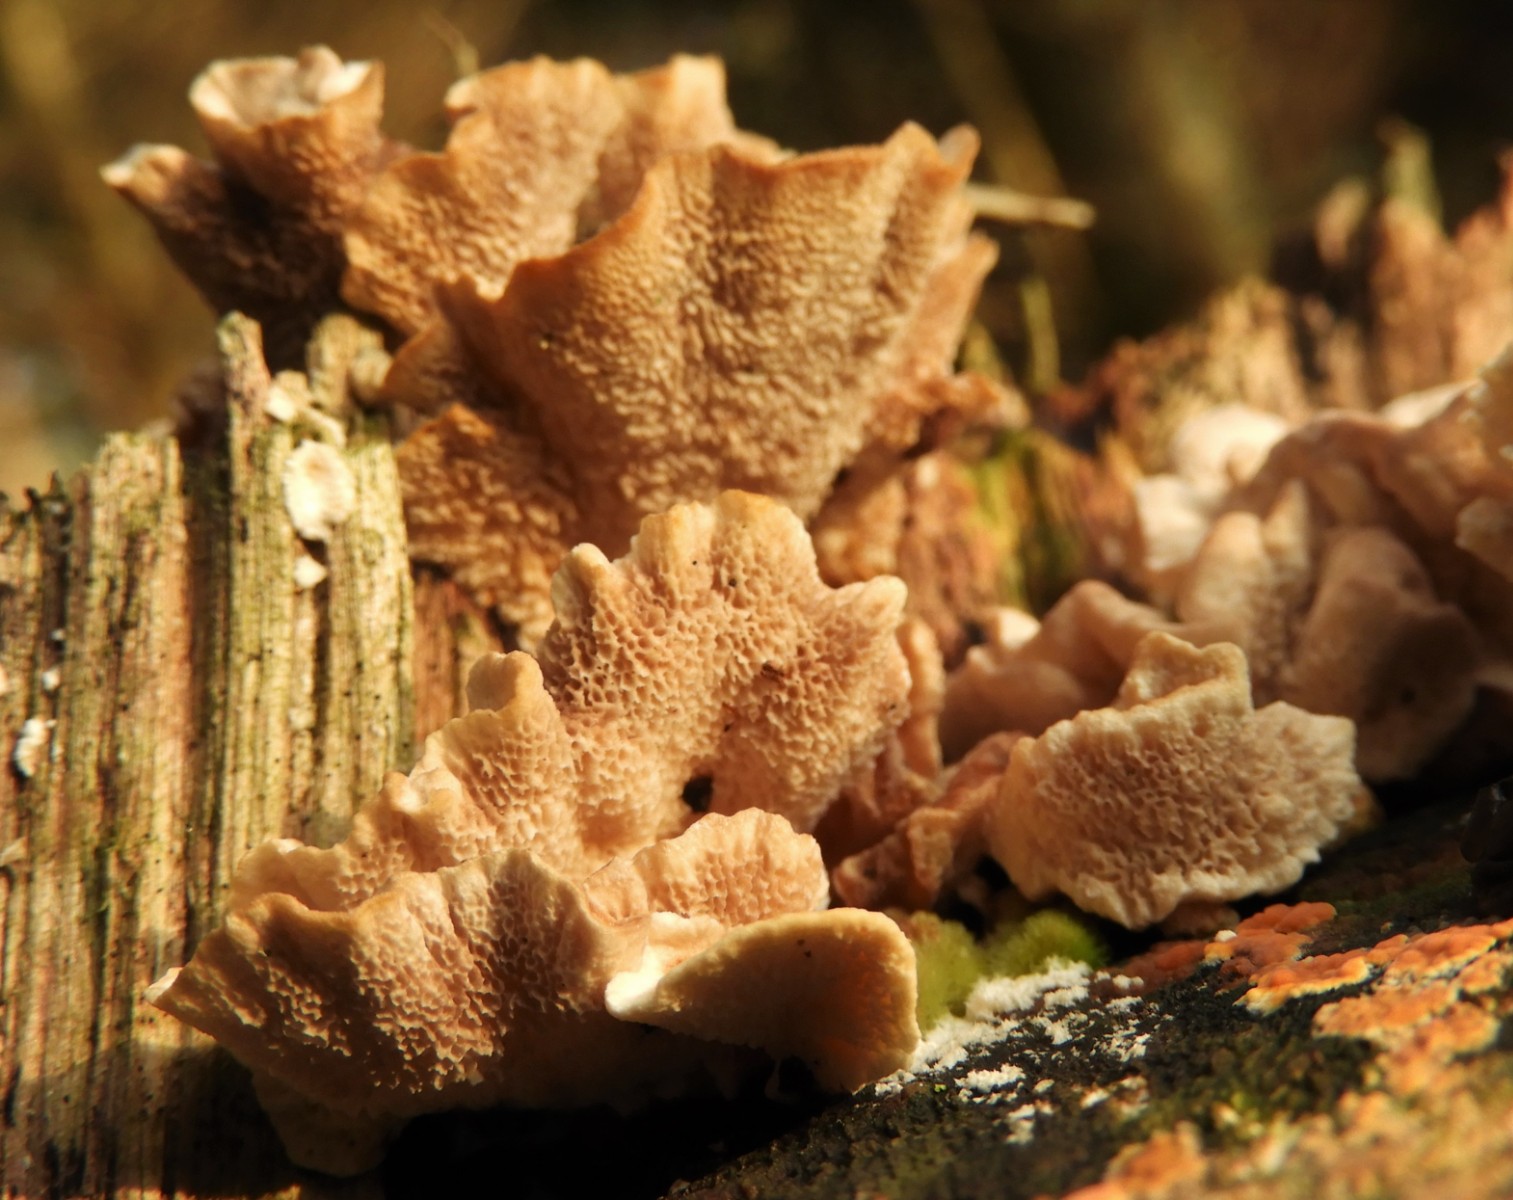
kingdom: Fungi
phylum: Basidiomycota
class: Agaricomycetes
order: Polyporales
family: Polyporaceae
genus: Trametes
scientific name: Trametes ochracea
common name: bæltet læderporesvamp
